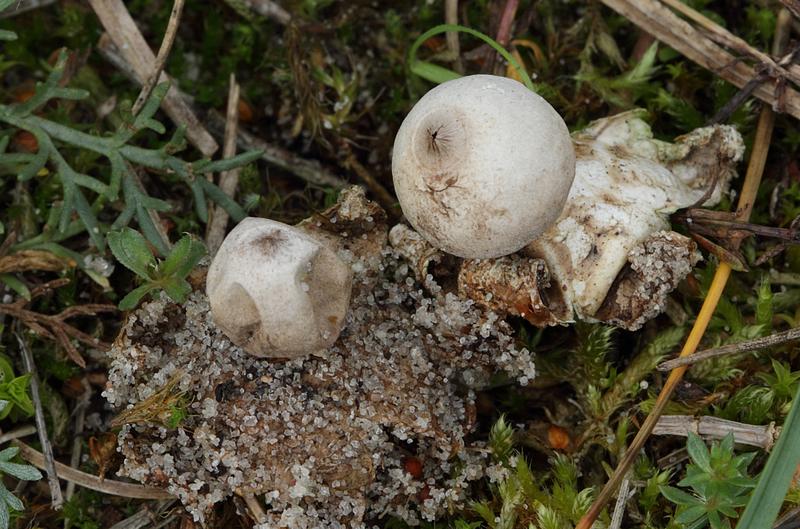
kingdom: Fungi
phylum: Basidiomycota
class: Agaricomycetes
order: Geastrales
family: Geastraceae
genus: Geastrum
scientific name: Geastrum minimum
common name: liden stjernebold
